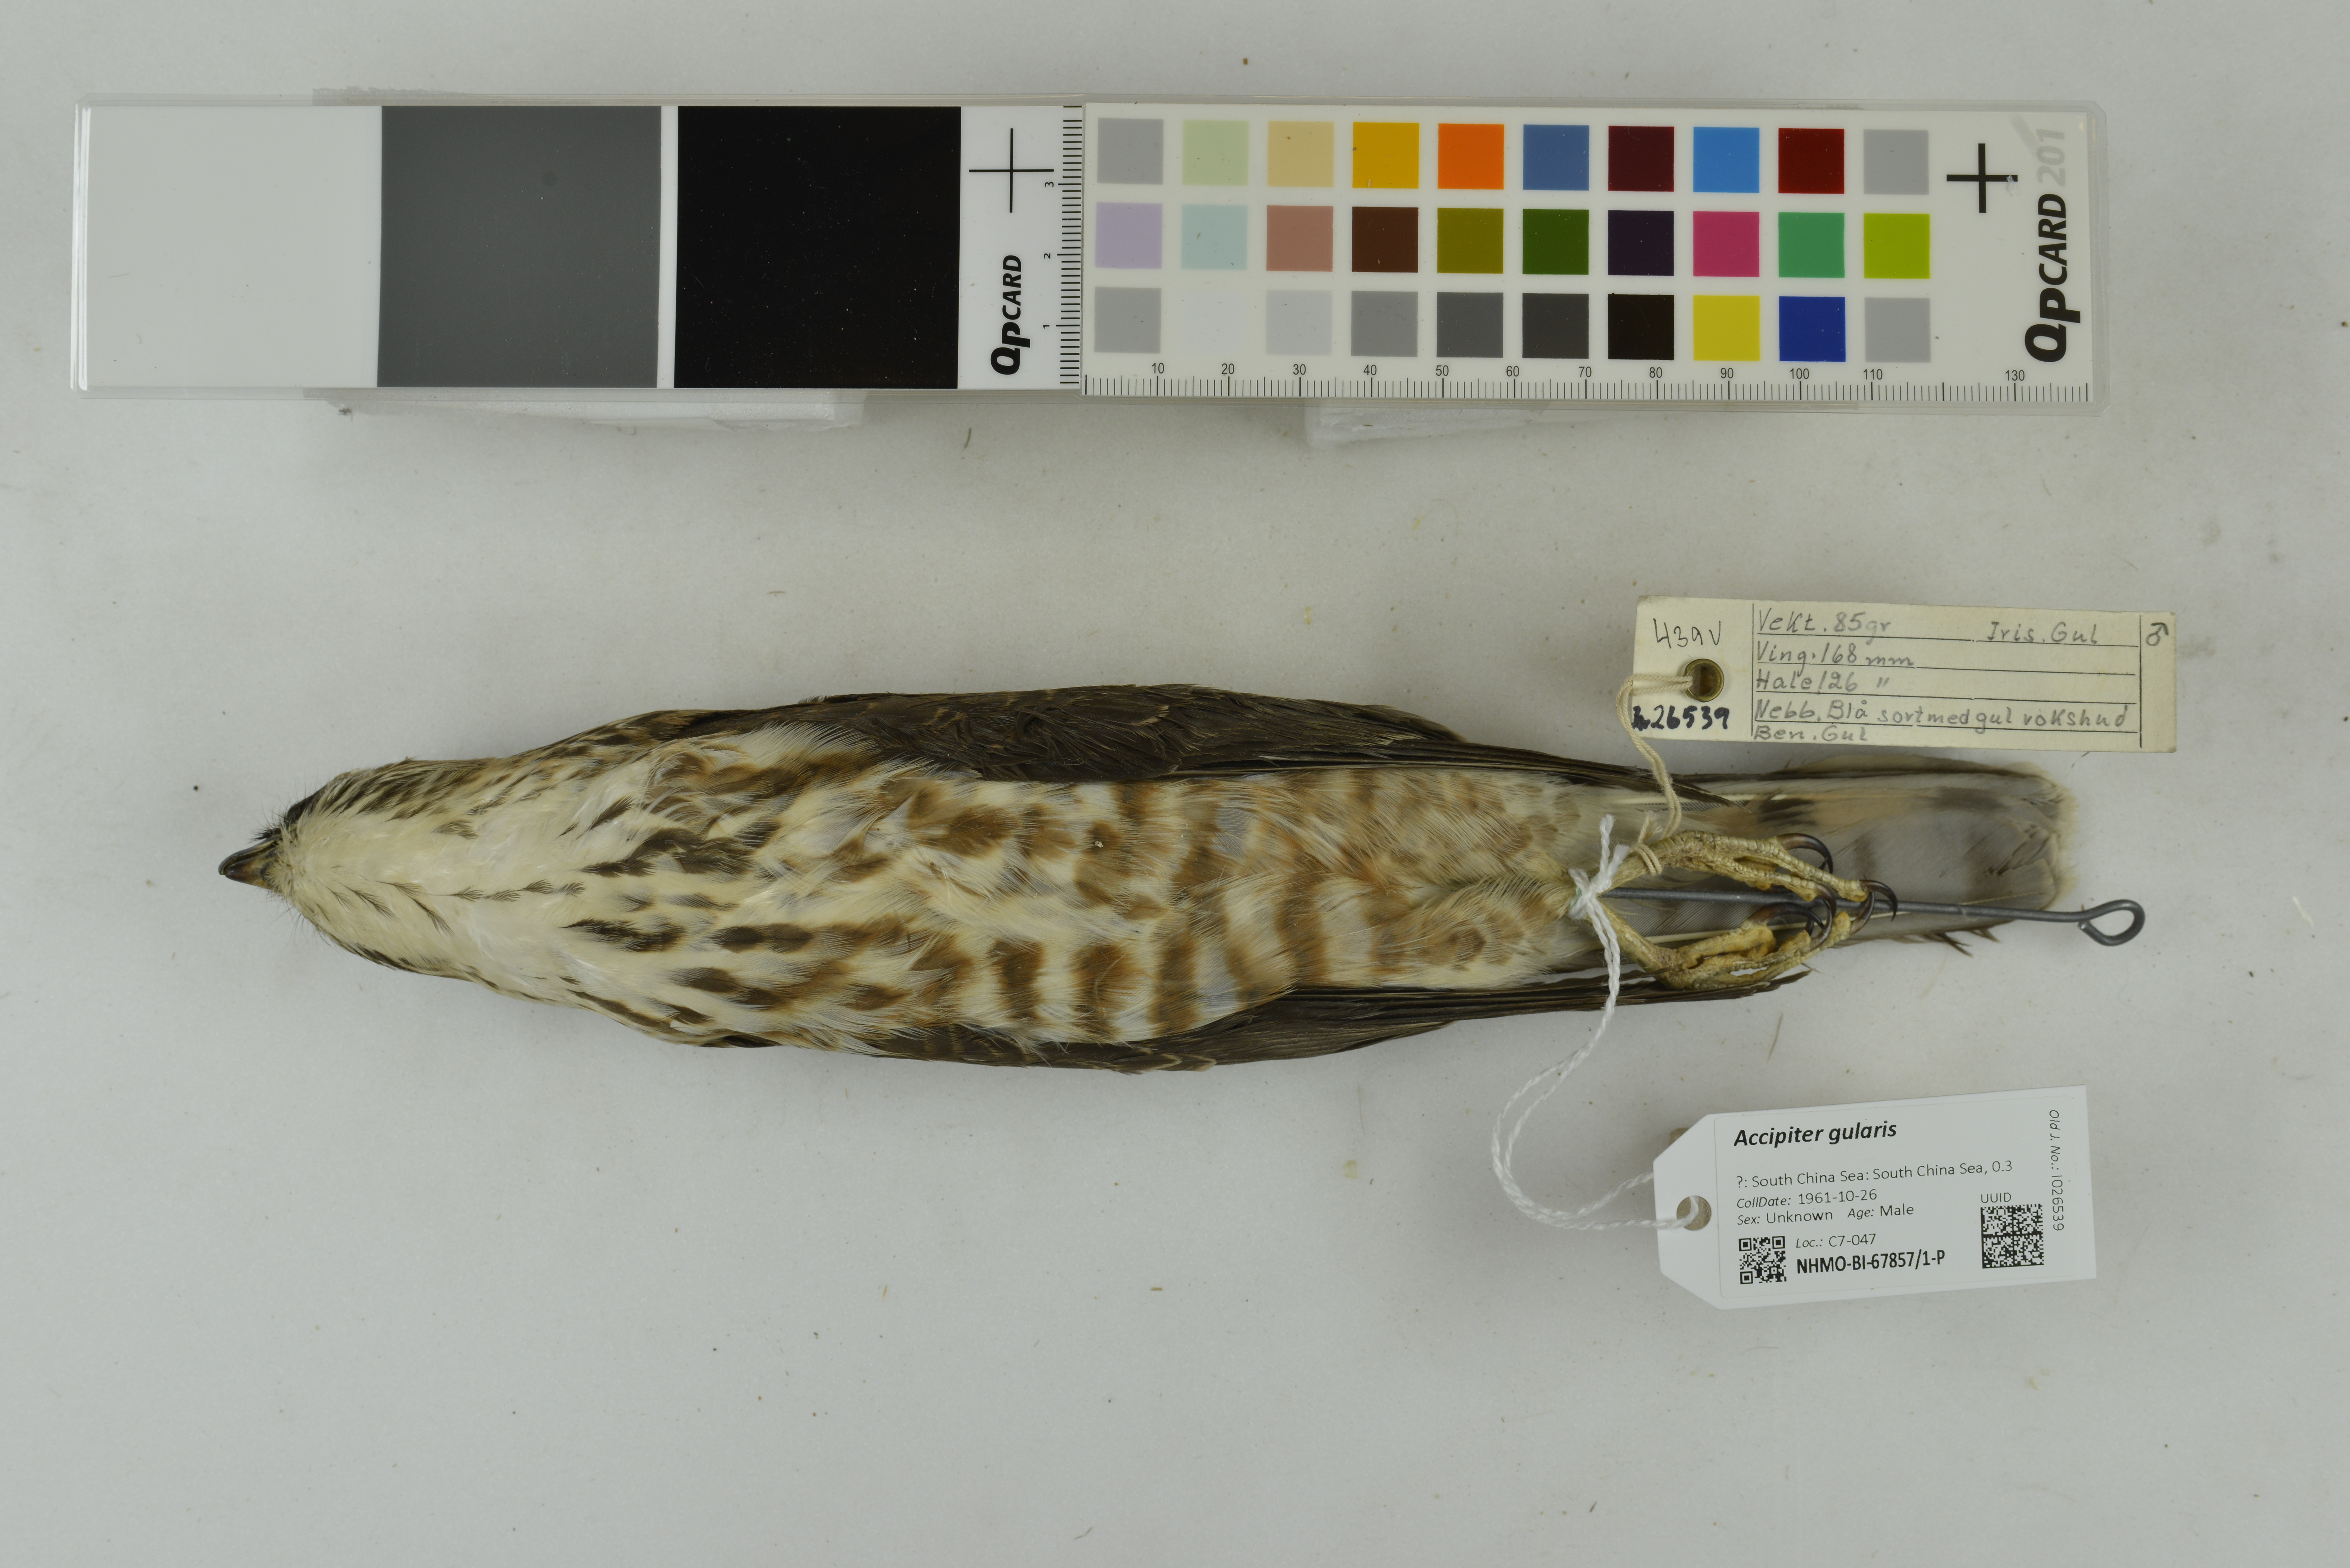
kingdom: Animalia
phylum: Chordata
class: Aves
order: Accipitriformes
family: Accipitridae
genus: Accipiter
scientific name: Accipiter gularis
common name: Japanese sparrowhawk
